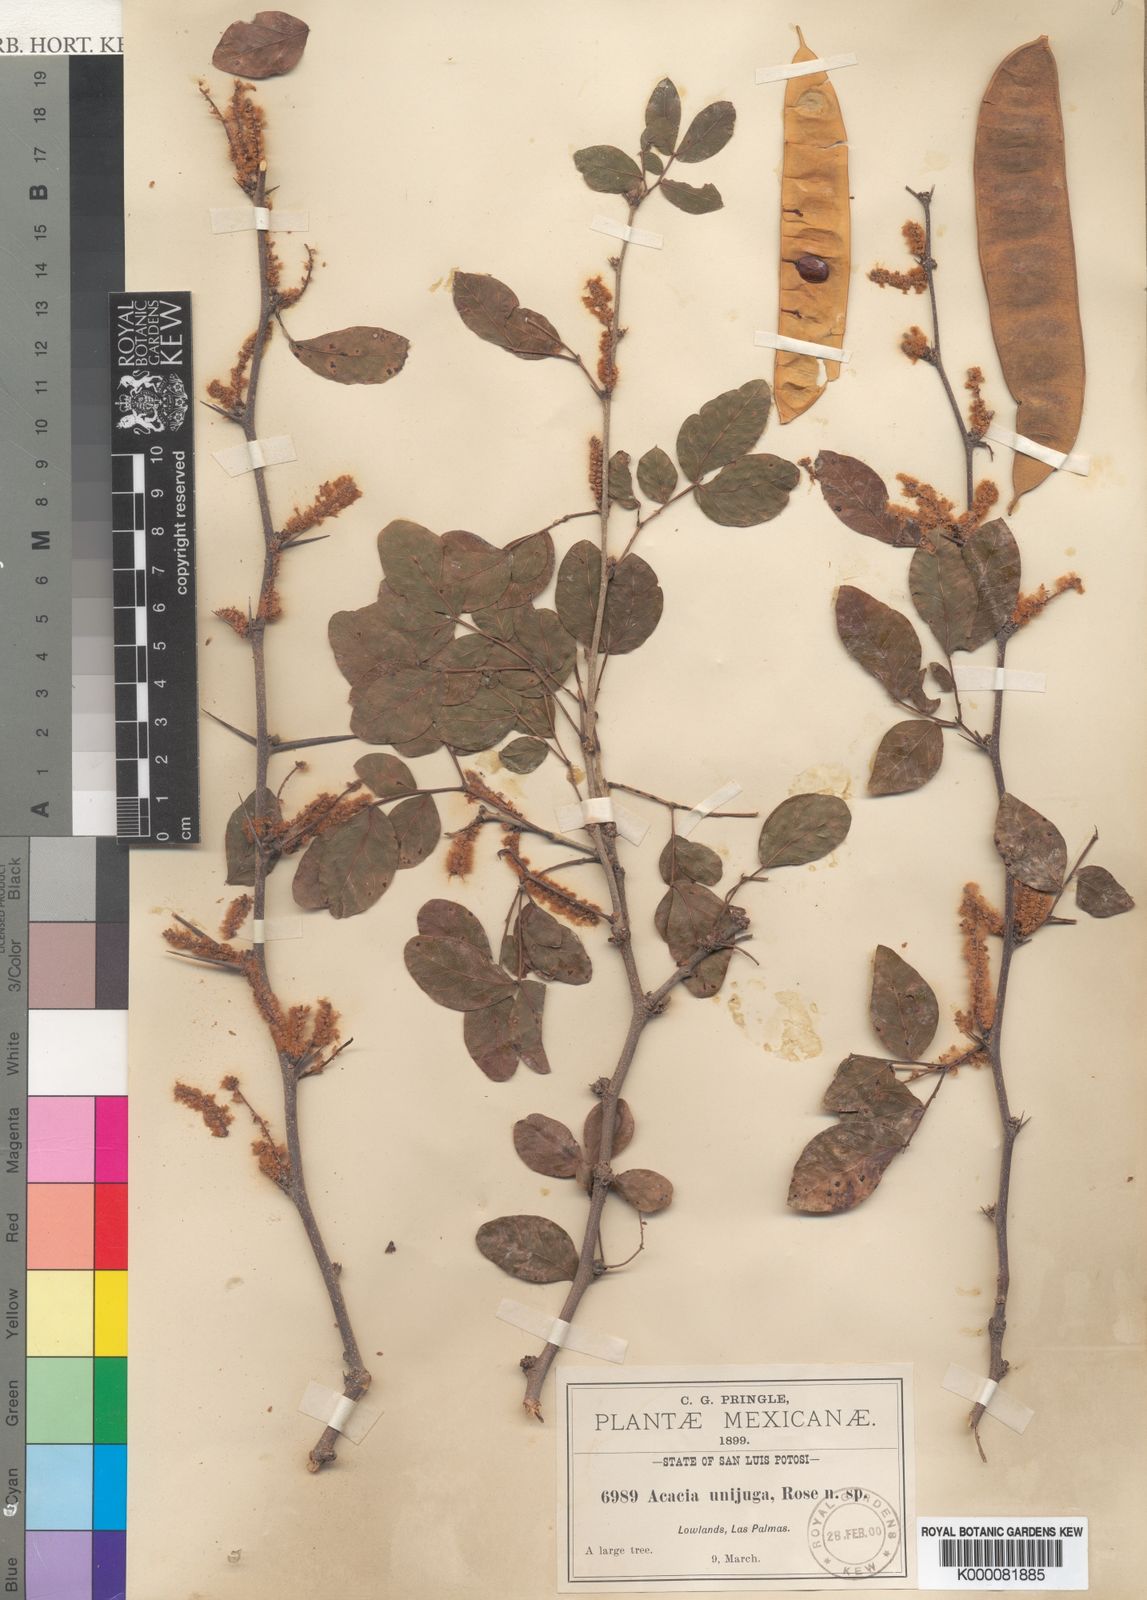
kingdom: Plantae
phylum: Tracheophyta
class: Magnoliopsida
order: Fabales
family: Fabaceae
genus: Vachellia
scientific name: Vachellia pringlei
